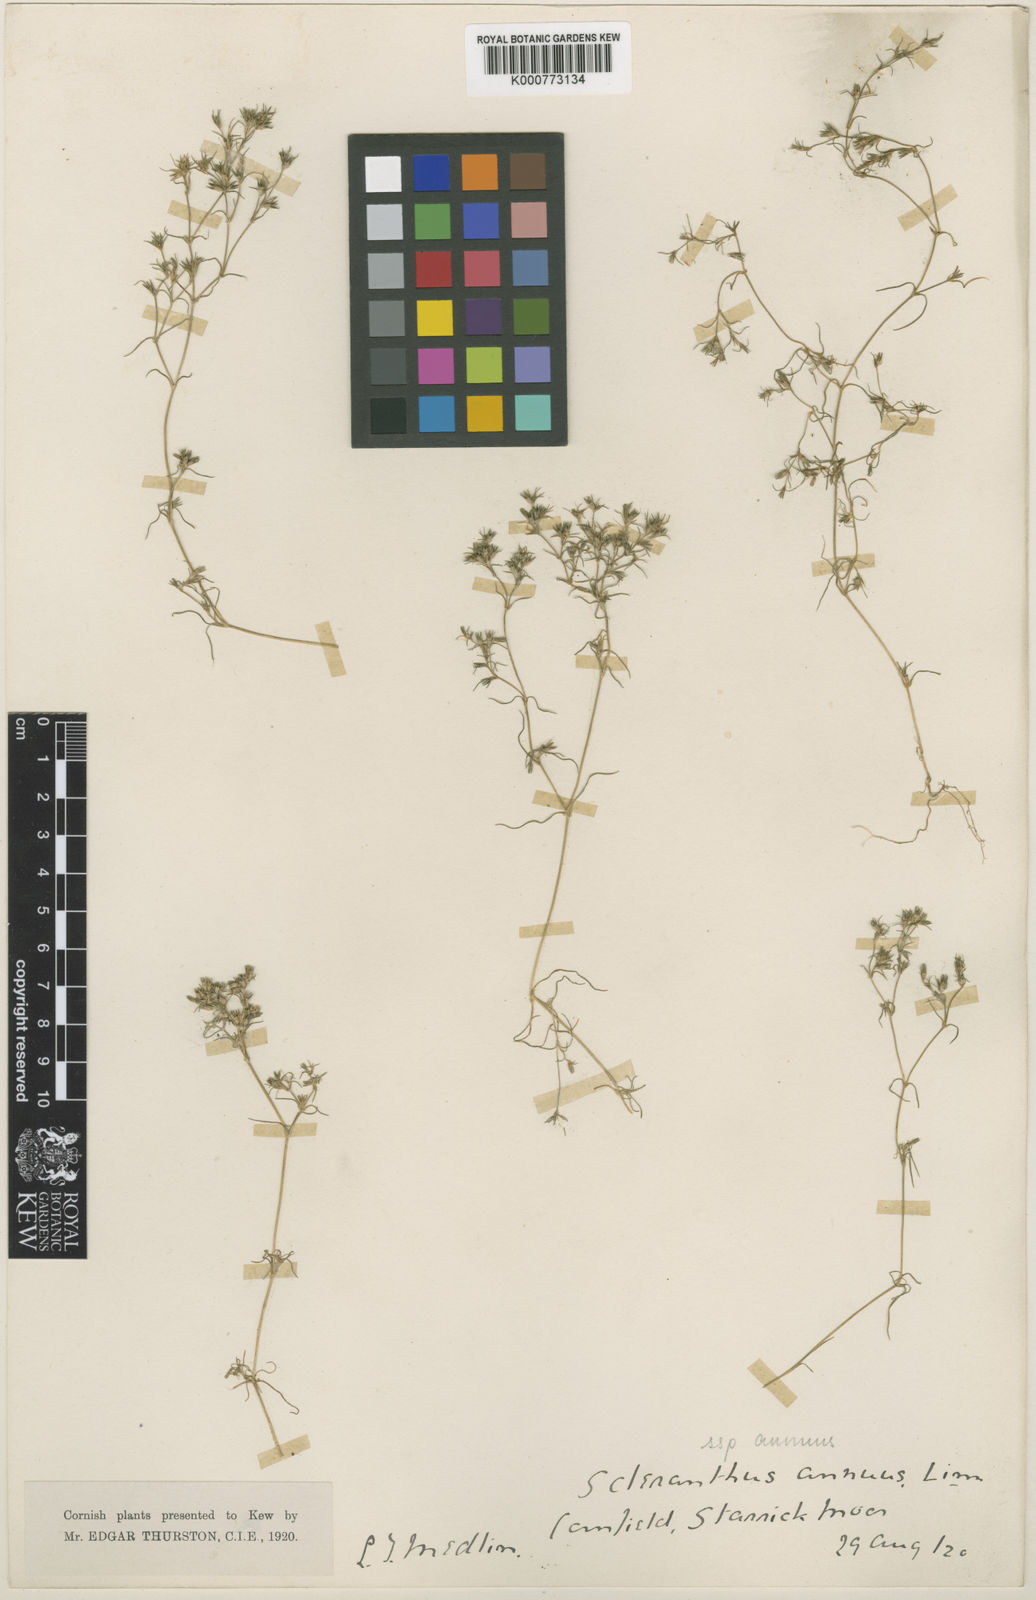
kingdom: Plantae
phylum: Tracheophyta
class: Magnoliopsida
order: Caryophyllales
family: Caryophyllaceae
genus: Scleranthus
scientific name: Scleranthus annuus
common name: Annual knawel
